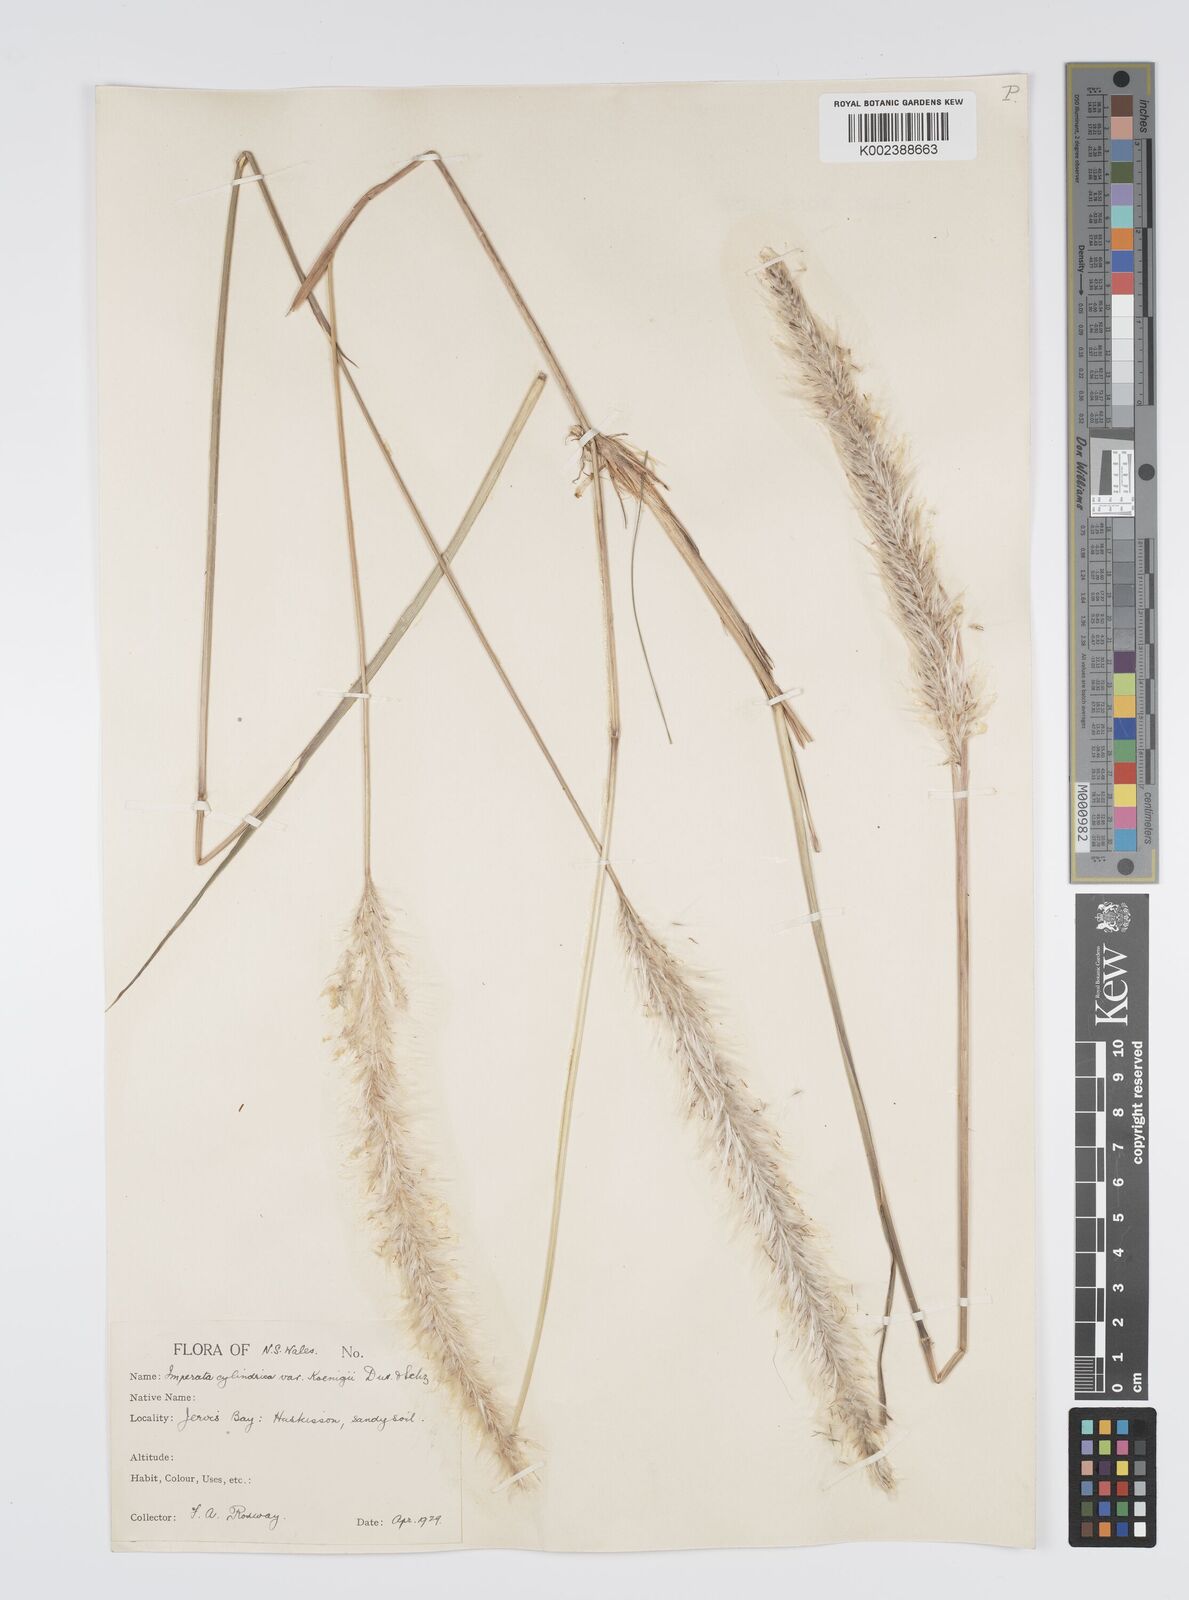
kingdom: Plantae
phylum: Tracheophyta
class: Liliopsida
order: Poales
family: Poaceae
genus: Imperata
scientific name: Imperata cylindrica
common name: Cogongrass
